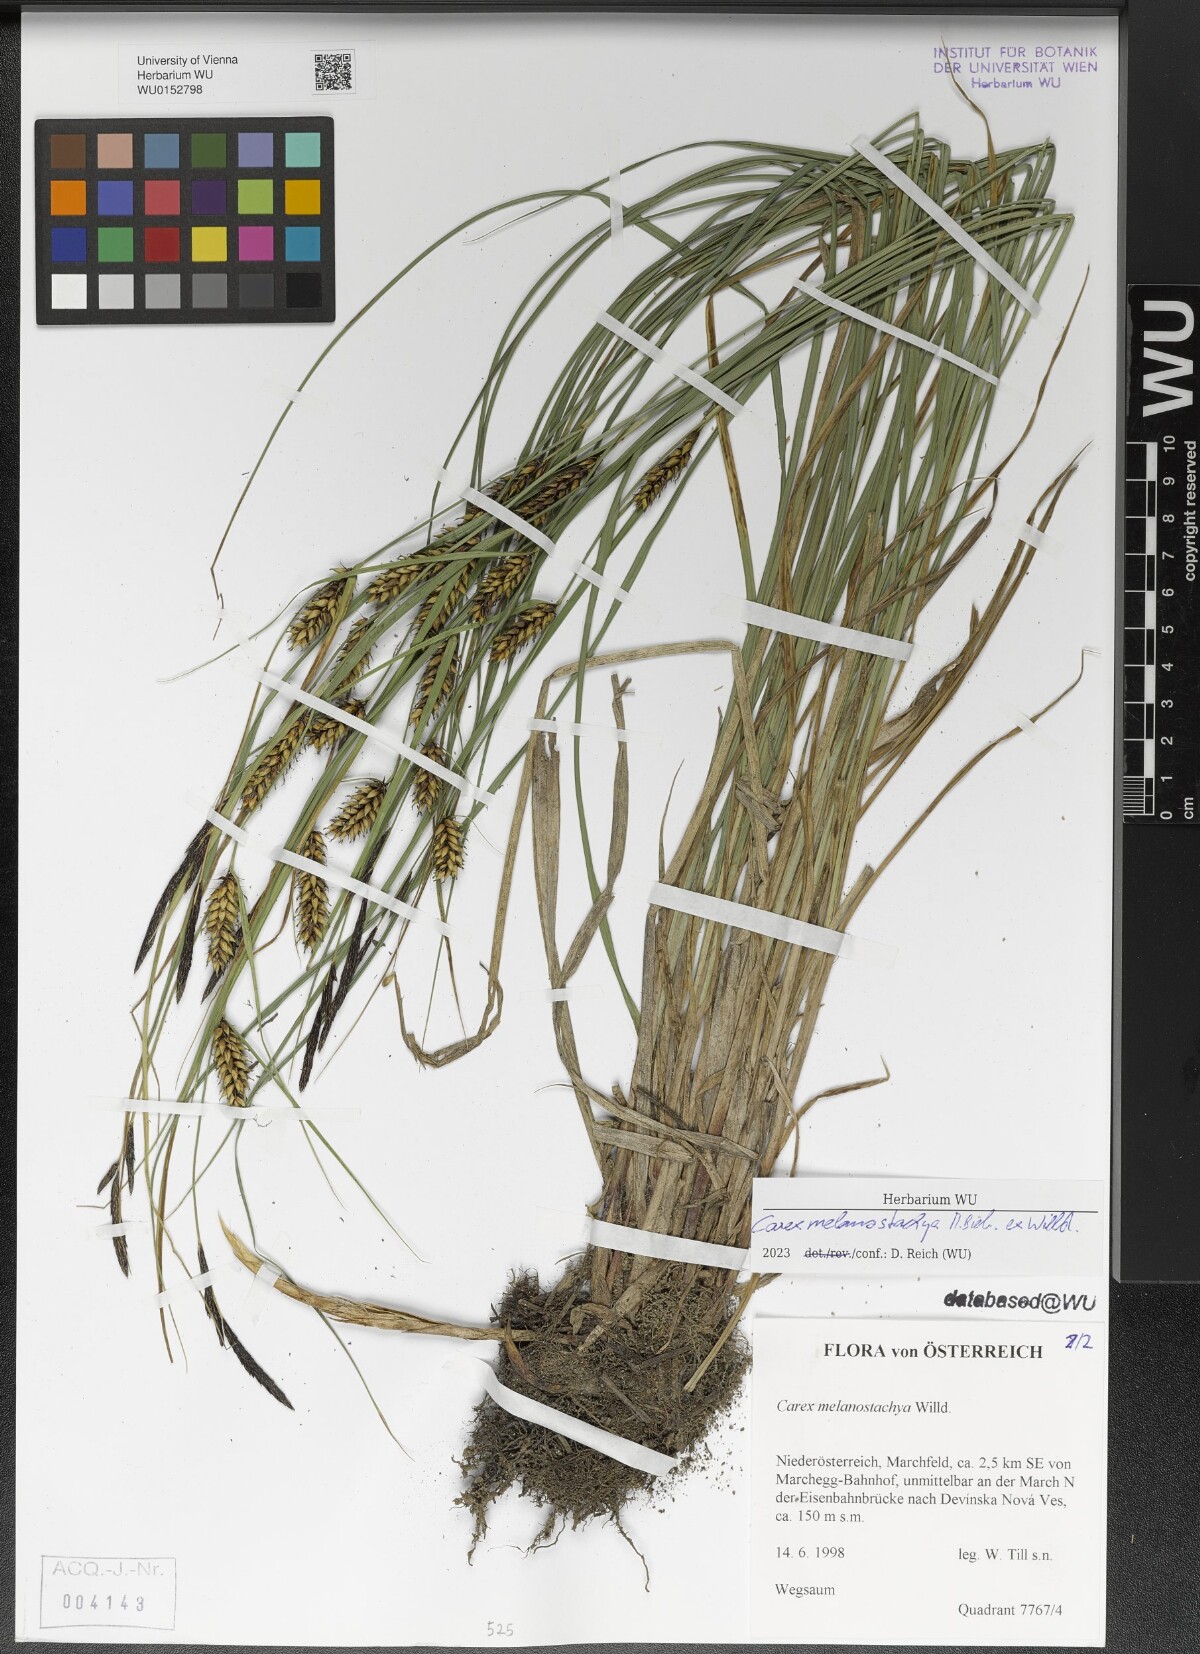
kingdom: Plantae
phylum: Tracheophyta
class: Liliopsida
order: Poales
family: Cyperaceae
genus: Carex
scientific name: Carex melanostachya
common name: Black-spiked sedge
